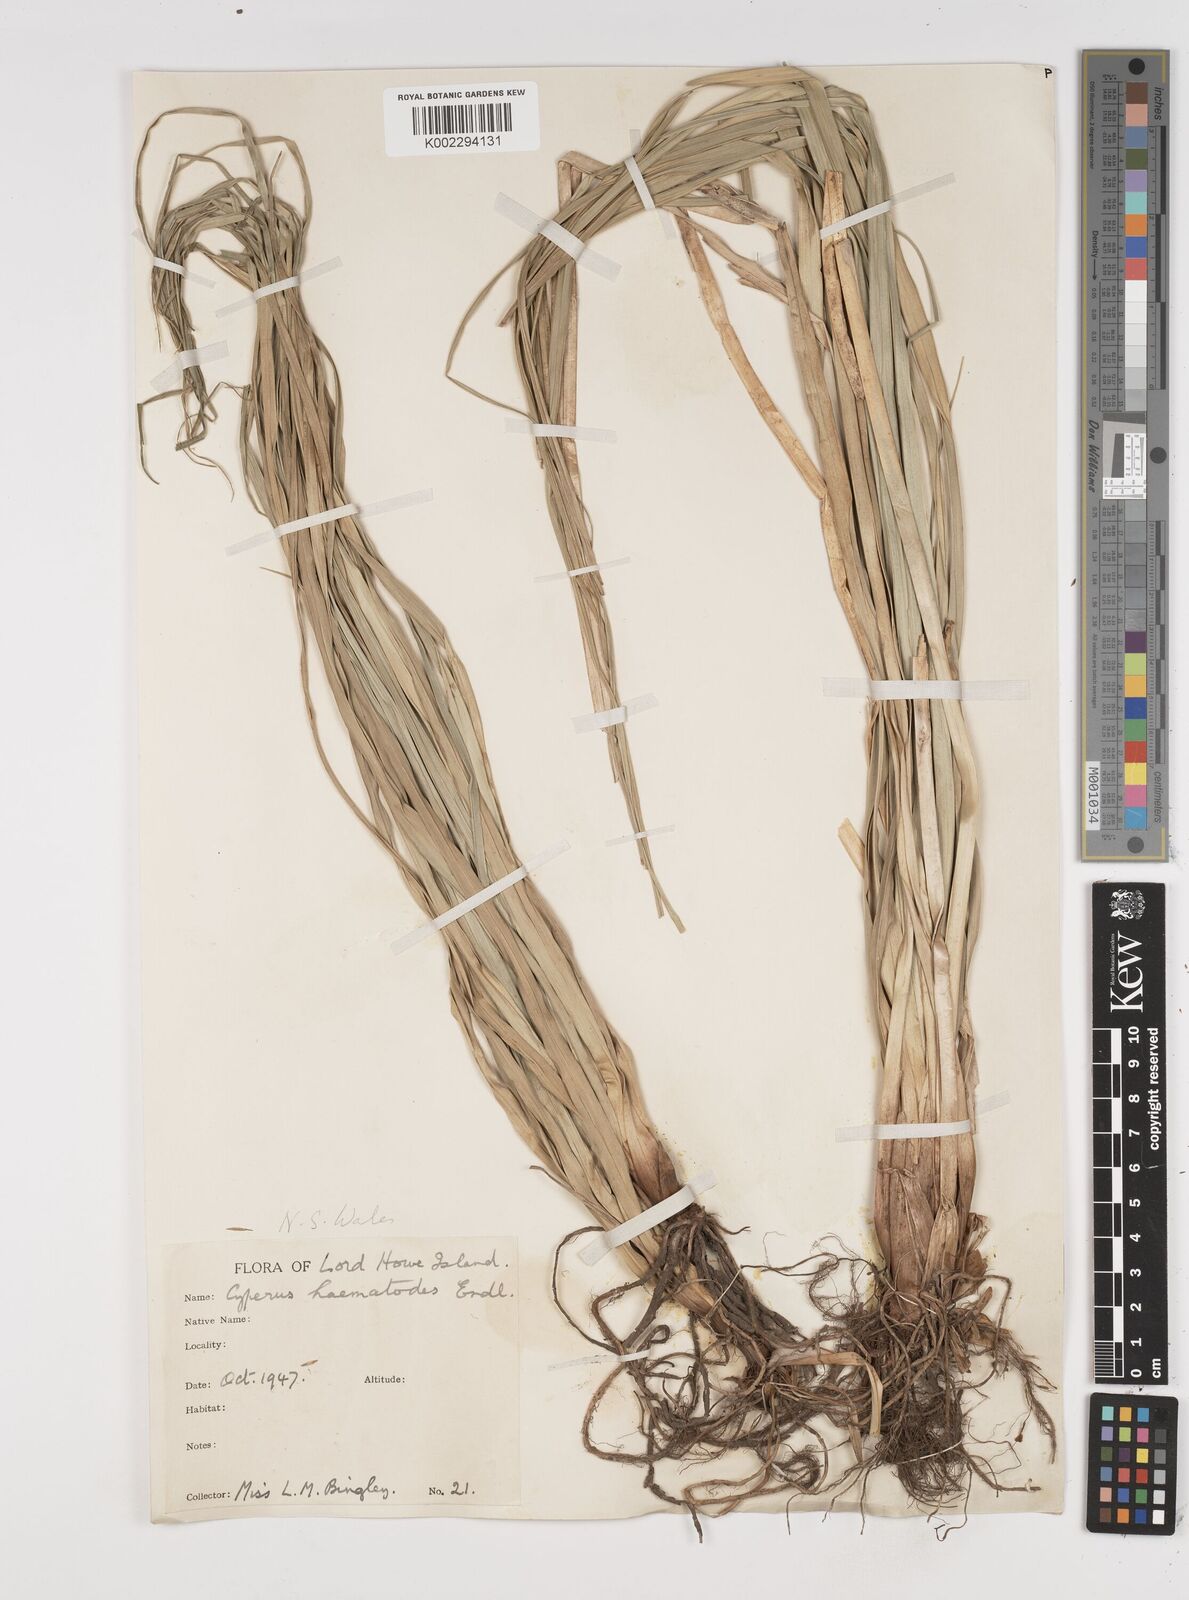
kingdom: Plantae
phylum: Tracheophyta
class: Liliopsida
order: Poales
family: Cyperaceae
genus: Cyperus
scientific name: Cyperus lucidus
